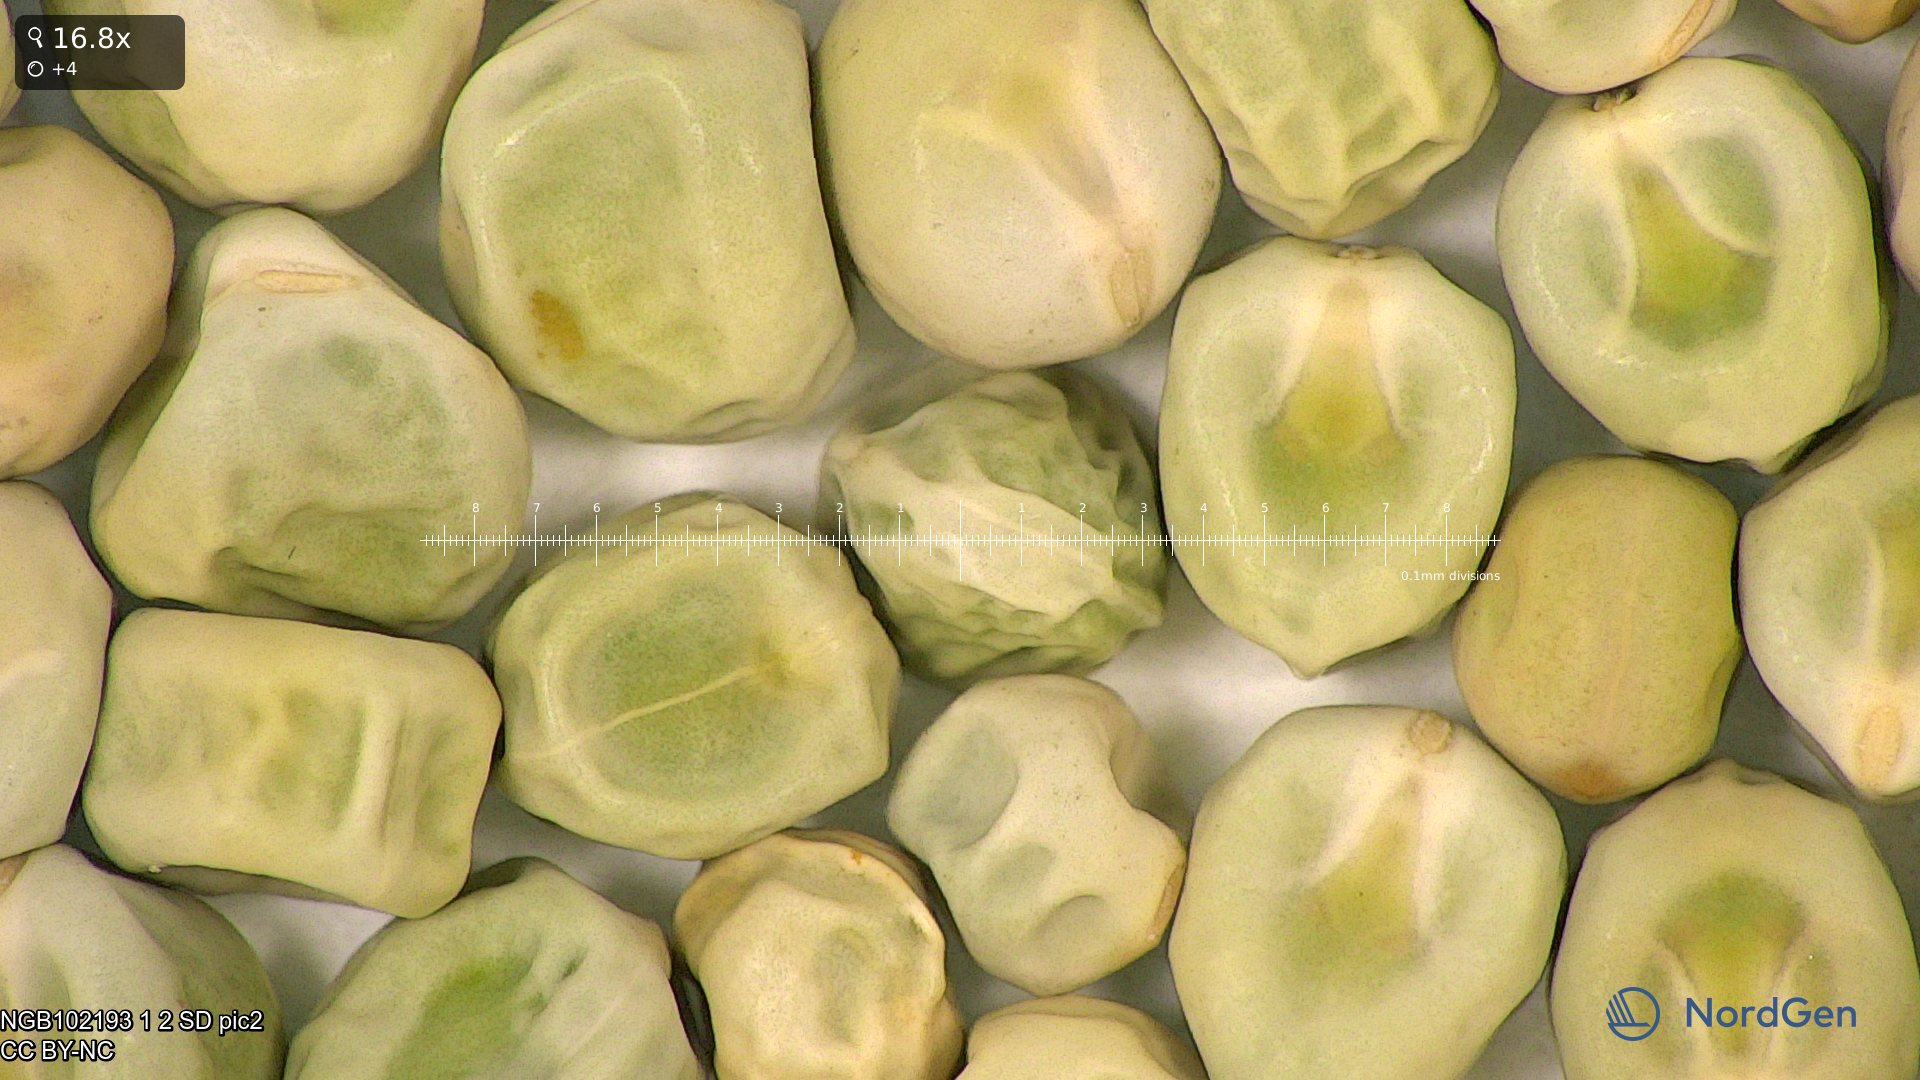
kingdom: Plantae
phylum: Tracheophyta
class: Magnoliopsida
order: Fabales
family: Fabaceae
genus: Lathyrus
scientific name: Lathyrus oleraceus
